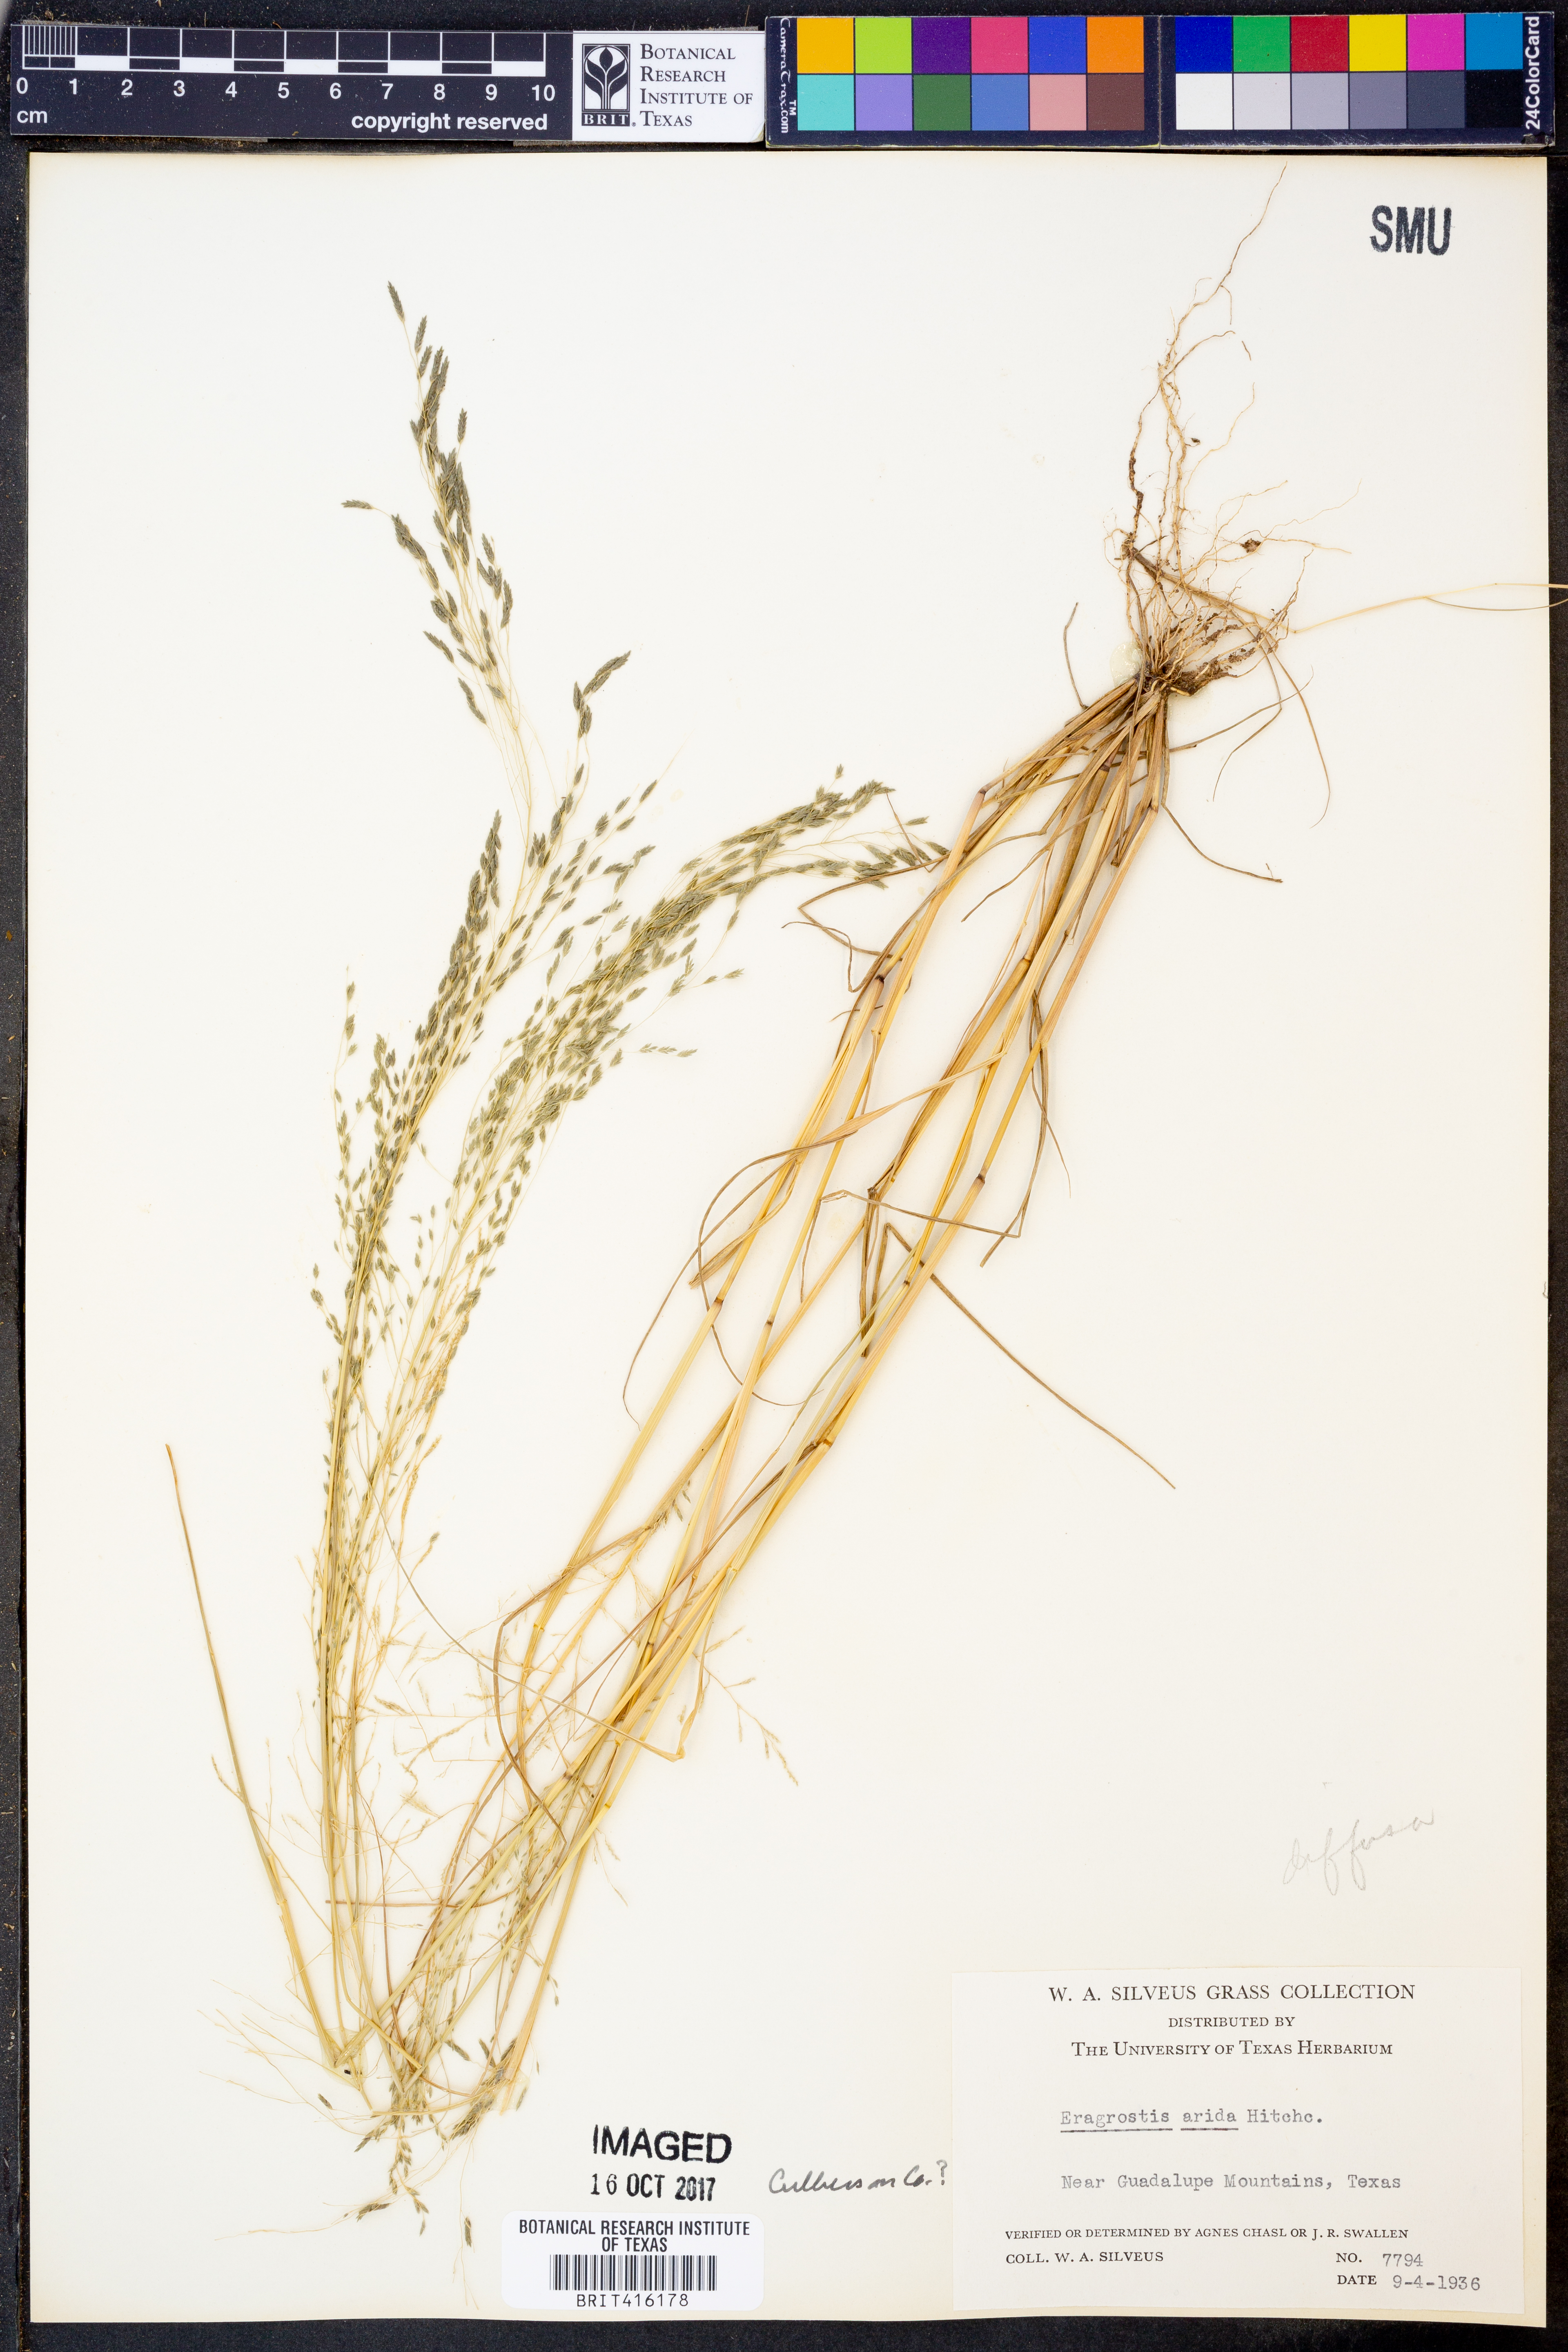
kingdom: Plantae
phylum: Tracheophyta
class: Liliopsida
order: Poales
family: Poaceae
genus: Eragrostis
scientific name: Eragrostis tephrosanthos
